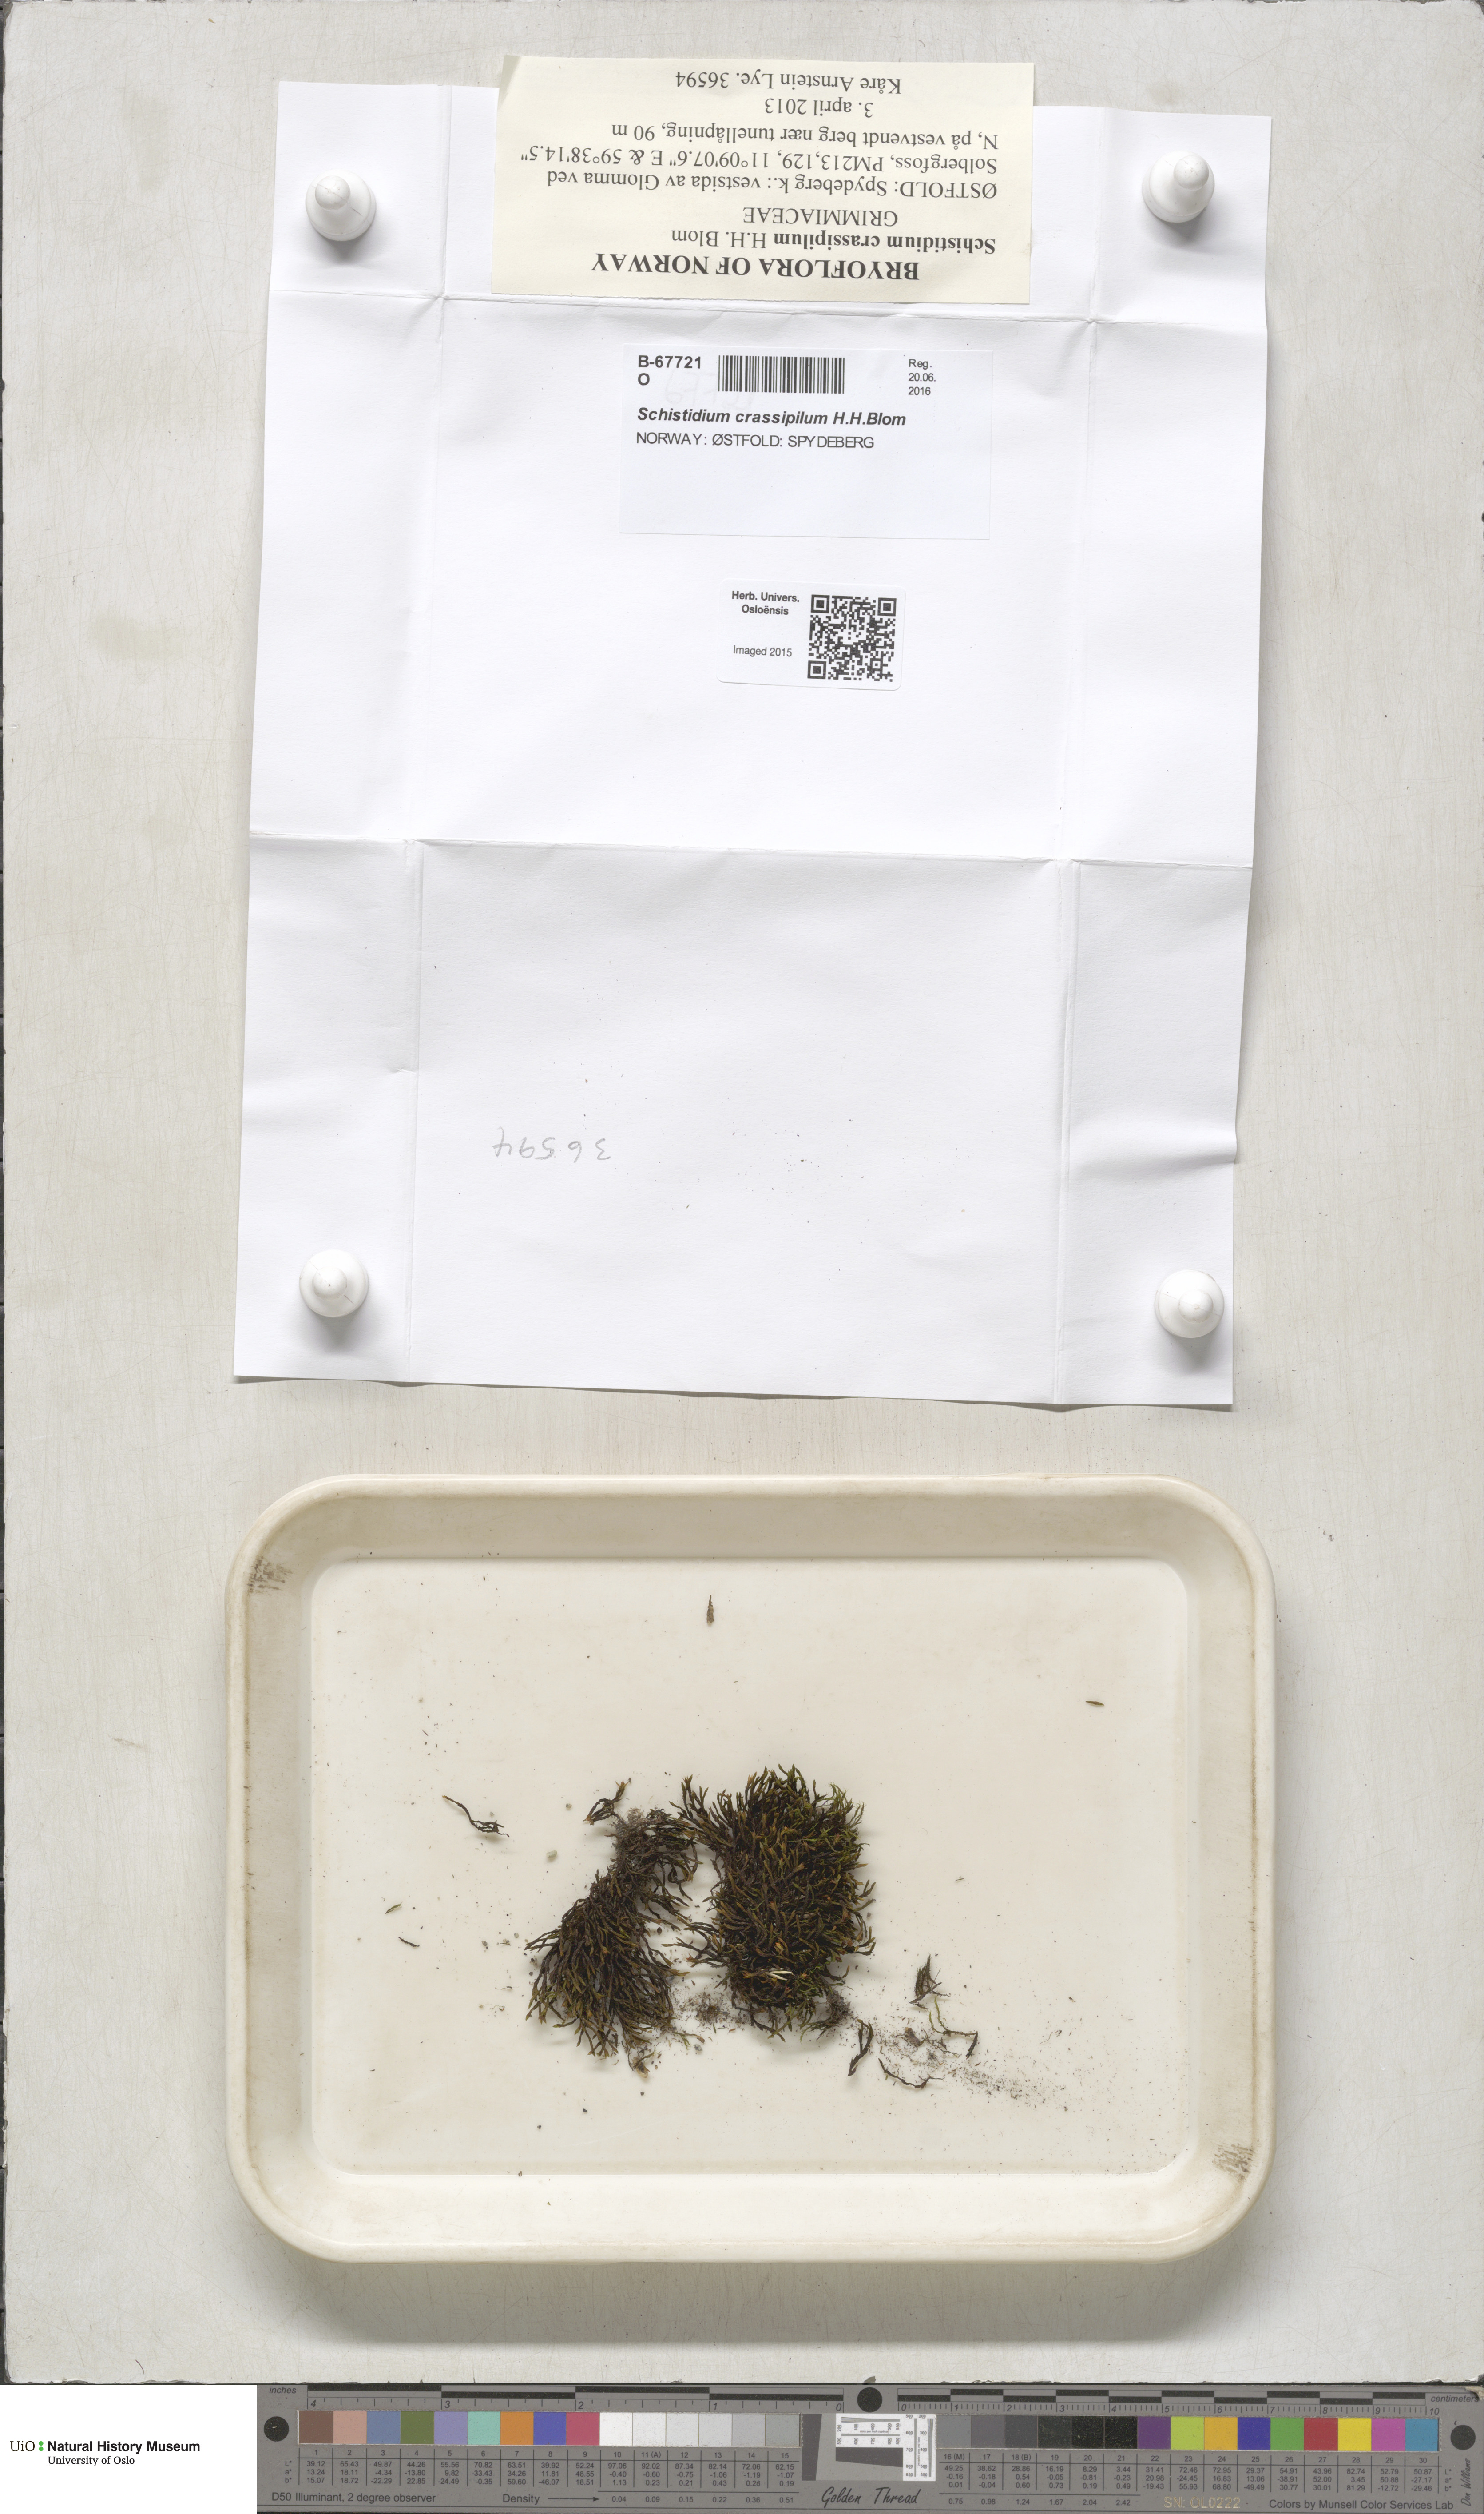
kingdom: Plantae
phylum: Bryophyta
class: Bryopsida
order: Grimmiales
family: Grimmiaceae
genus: Schistidium
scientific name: Schistidium crassipilum
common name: Thickpoint bloom moss
